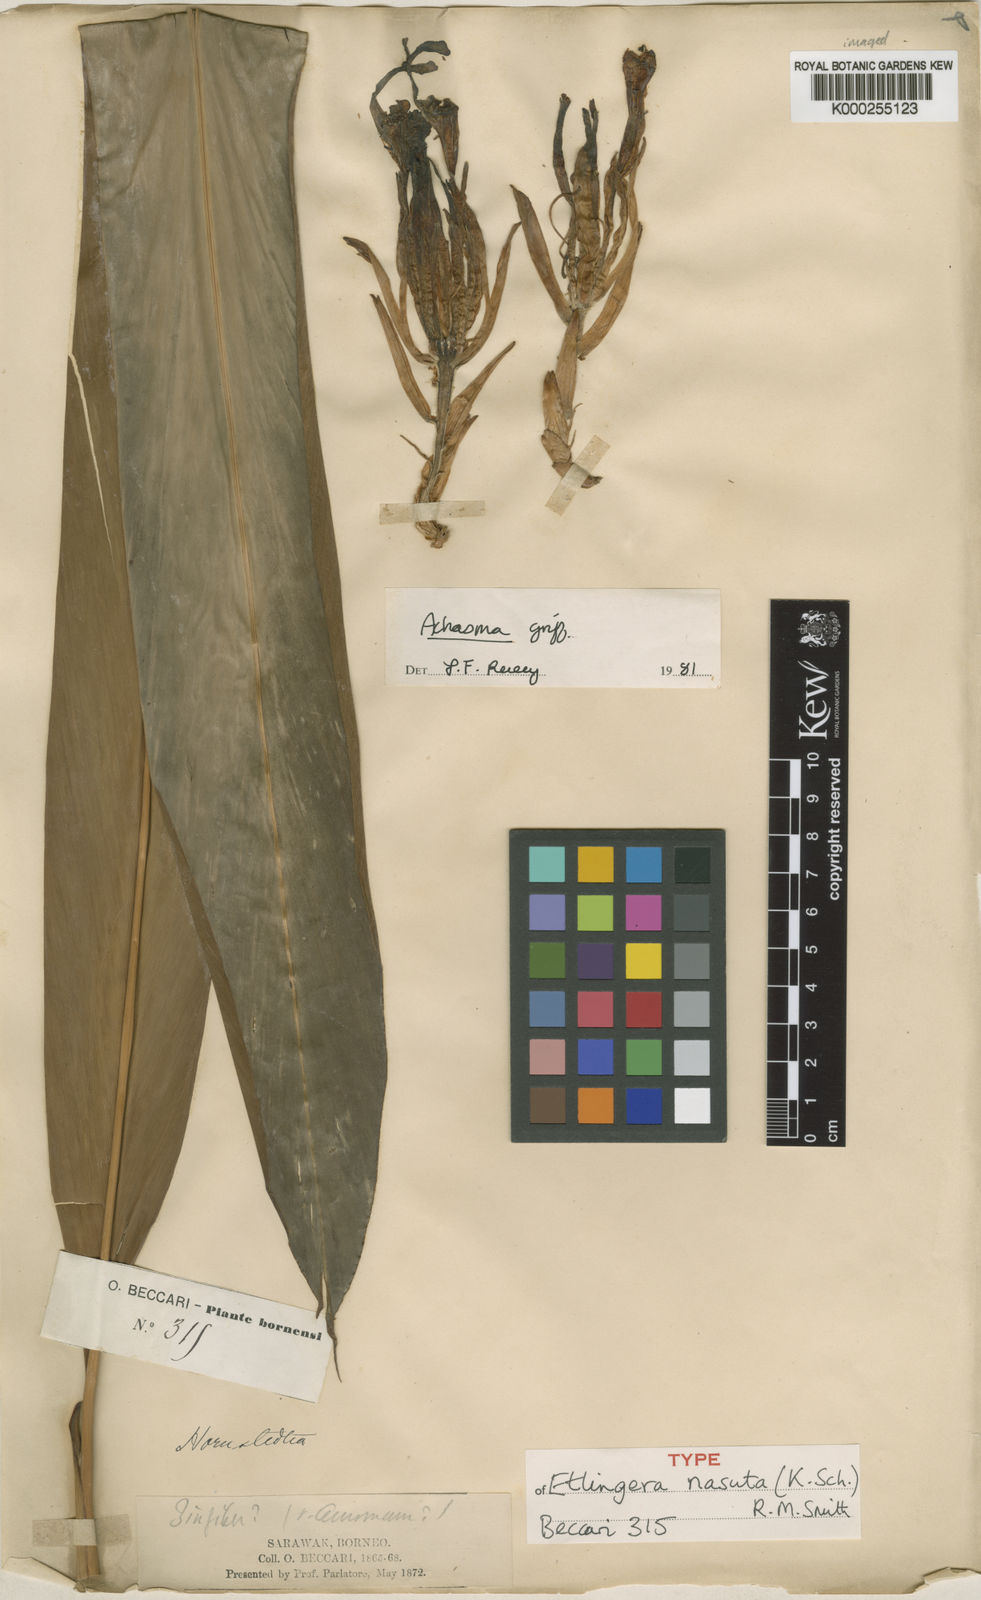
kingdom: Plantae
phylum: Tracheophyta
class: Liliopsida
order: Zingiberales
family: Zingiberaceae
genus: Etlingera
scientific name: Etlingera nasuta
